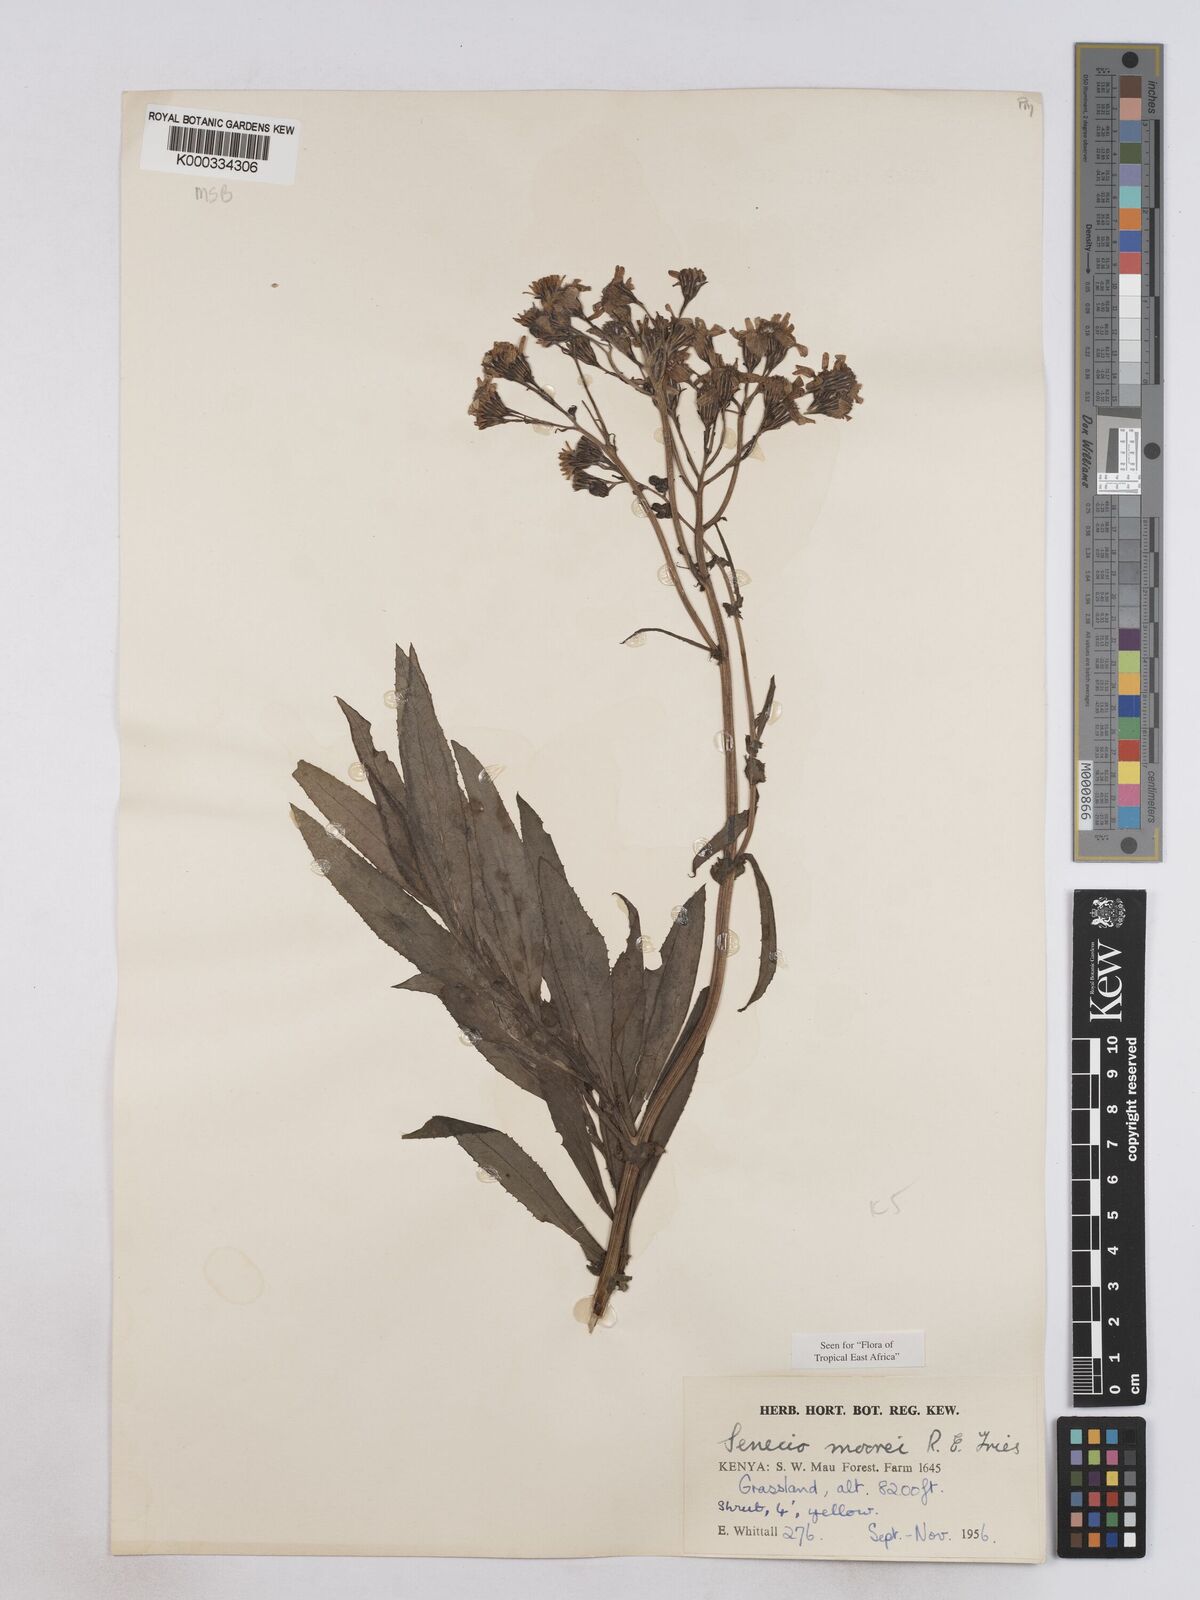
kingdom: Plantae
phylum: Tracheophyta
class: Magnoliopsida
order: Asterales
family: Asteraceae
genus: Senecio
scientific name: Senecio moorei
